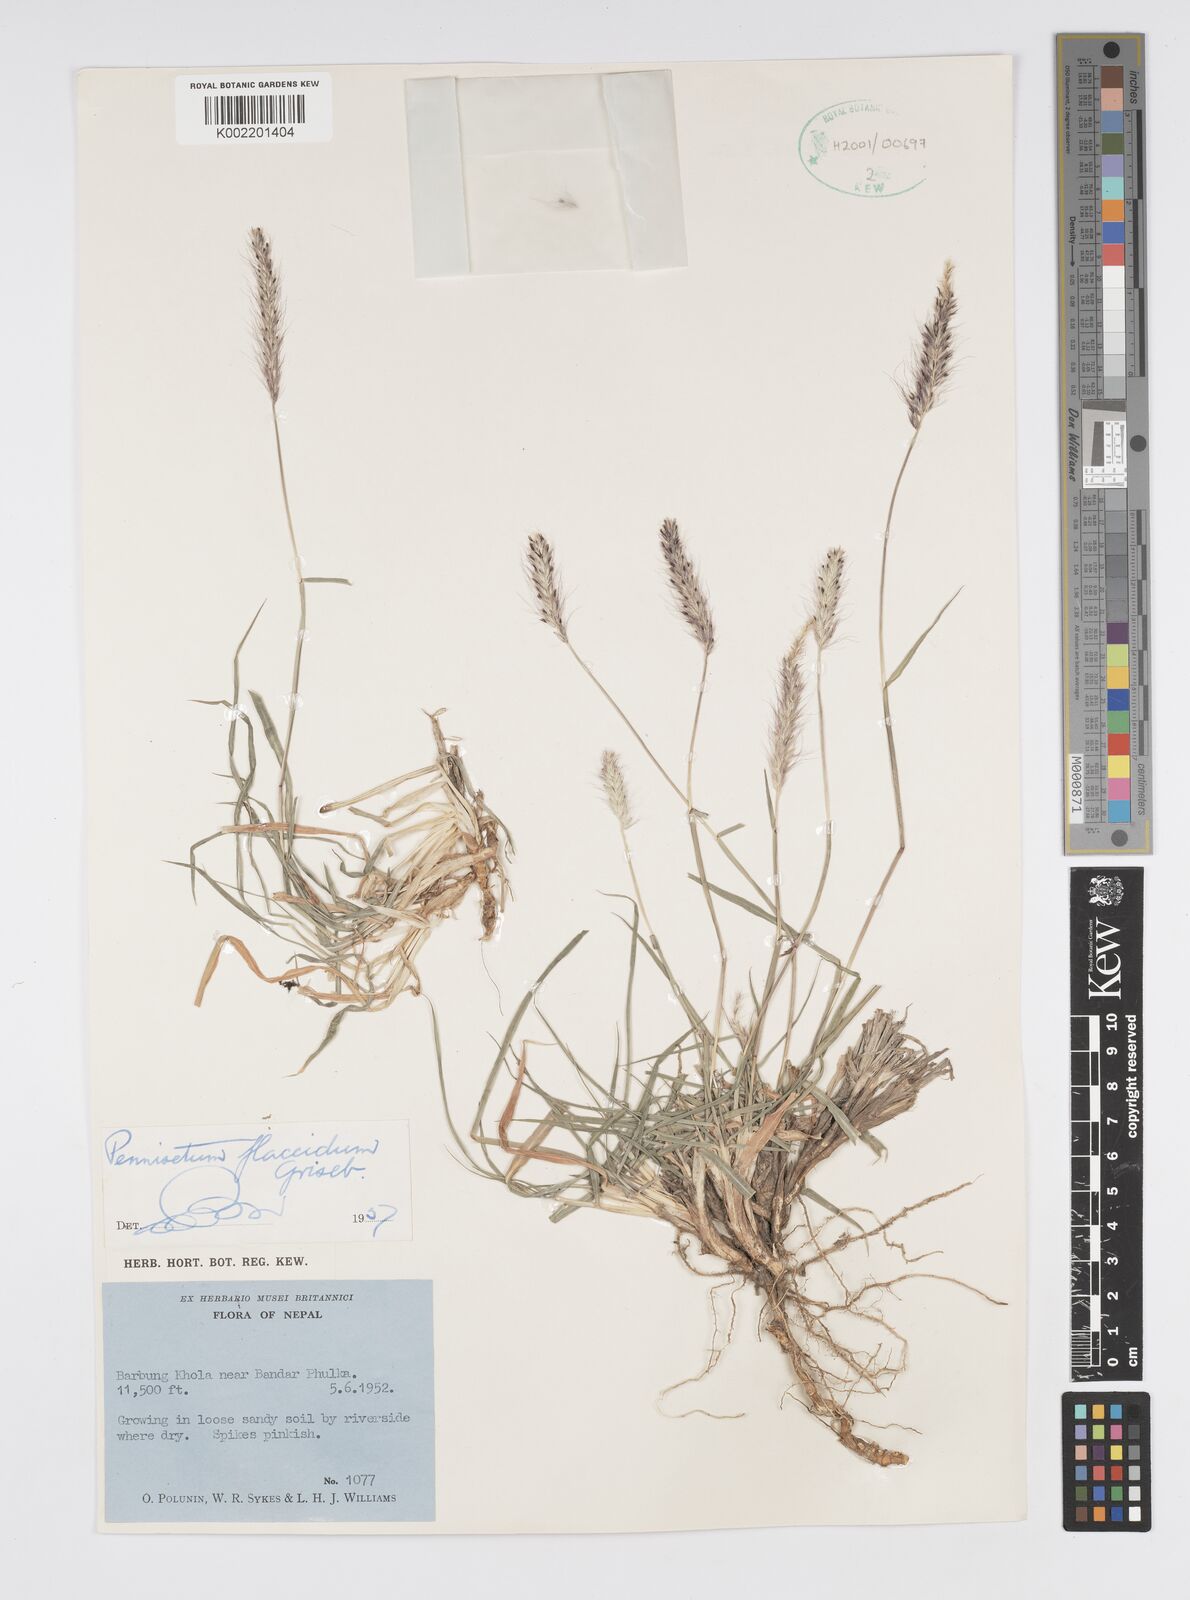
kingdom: Plantae
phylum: Tracheophyta
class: Liliopsida
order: Poales
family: Poaceae
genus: Cenchrus
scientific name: Cenchrus flaccidus
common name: Flaccid grass
